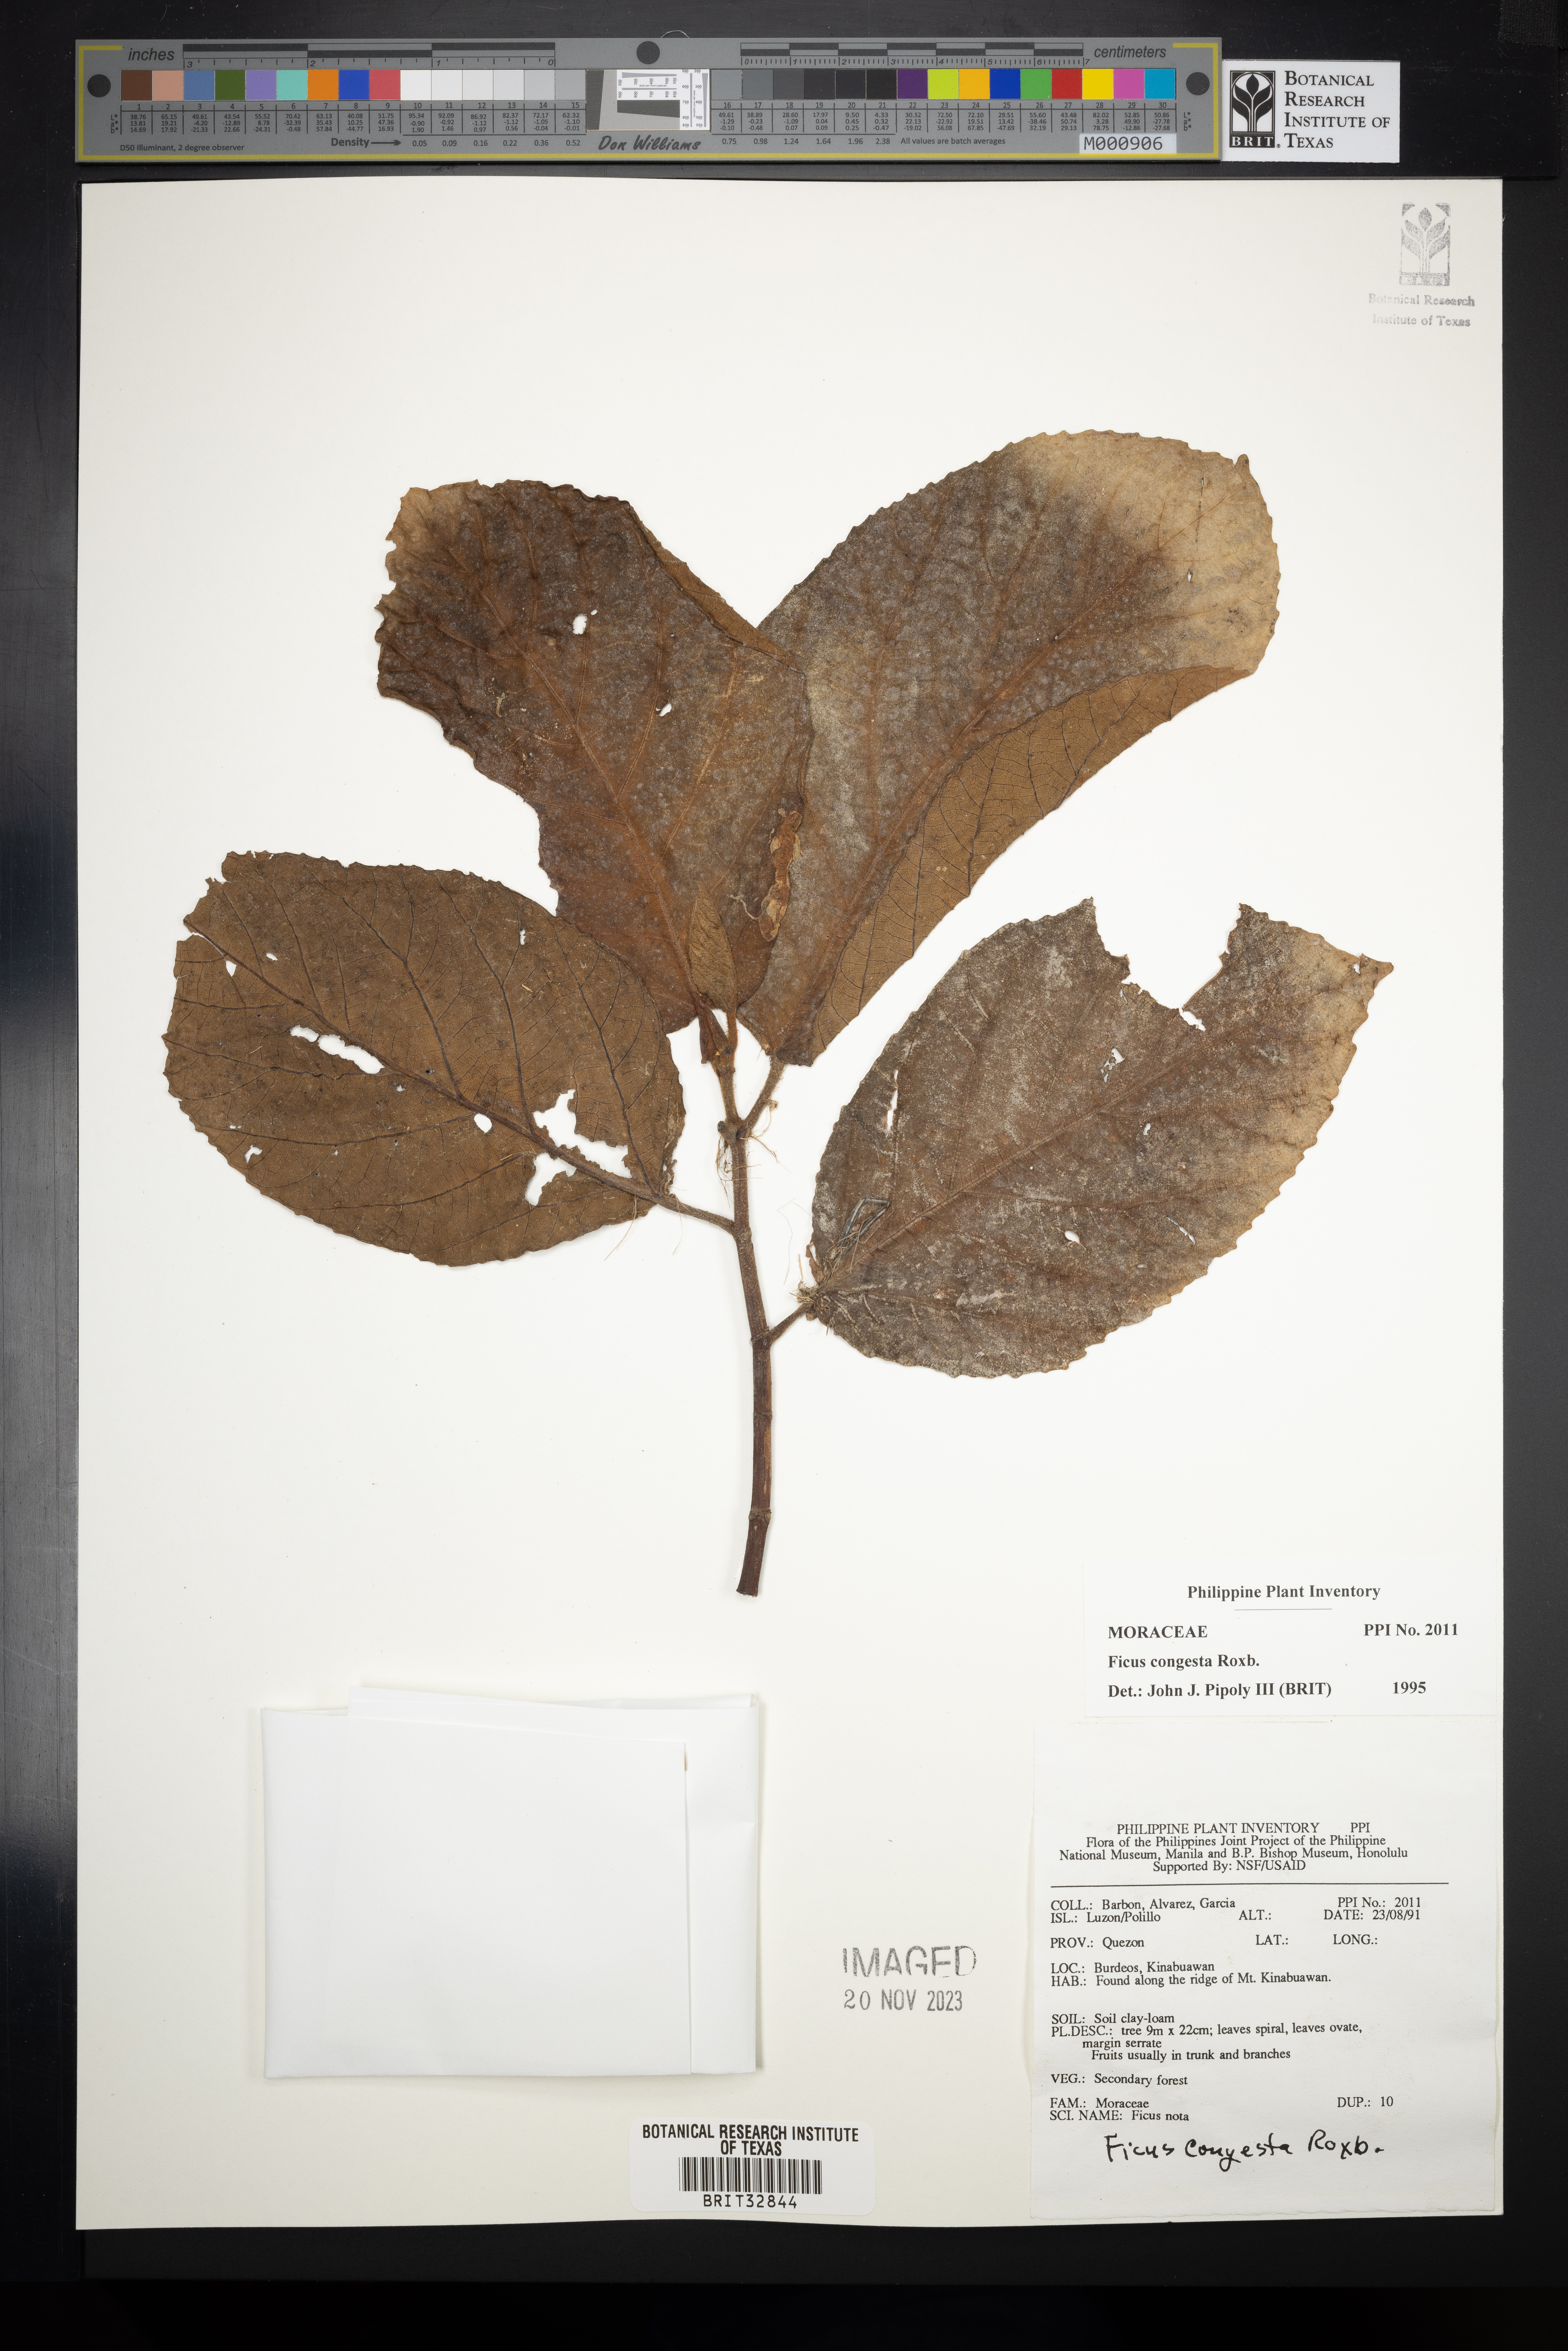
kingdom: Plantae
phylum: Tracheophyta
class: Magnoliopsida
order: Rosales
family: Moraceae
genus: Ficus
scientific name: Ficus congesta
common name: Cluster fig
